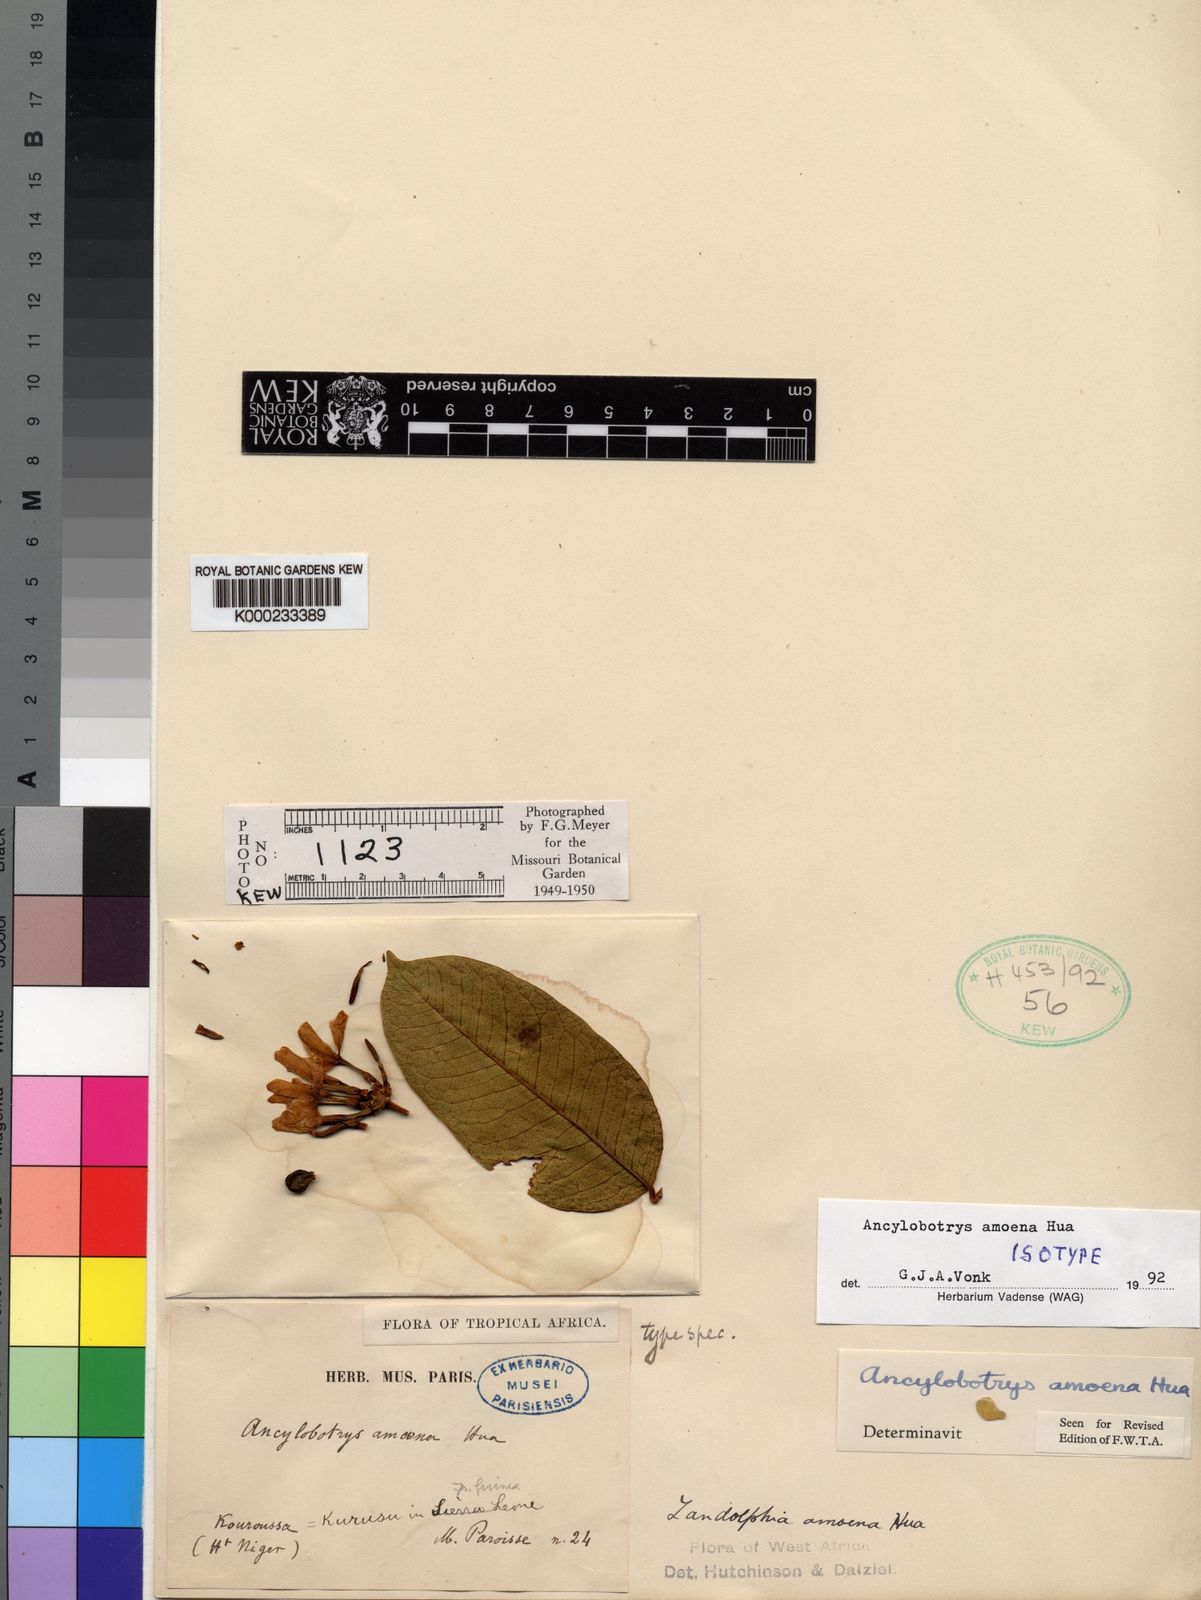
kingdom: Plantae
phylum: Tracheophyta
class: Magnoliopsida
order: Gentianales
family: Apocynaceae
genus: Ancylobothrys
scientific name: Ancylobothrys amoena
